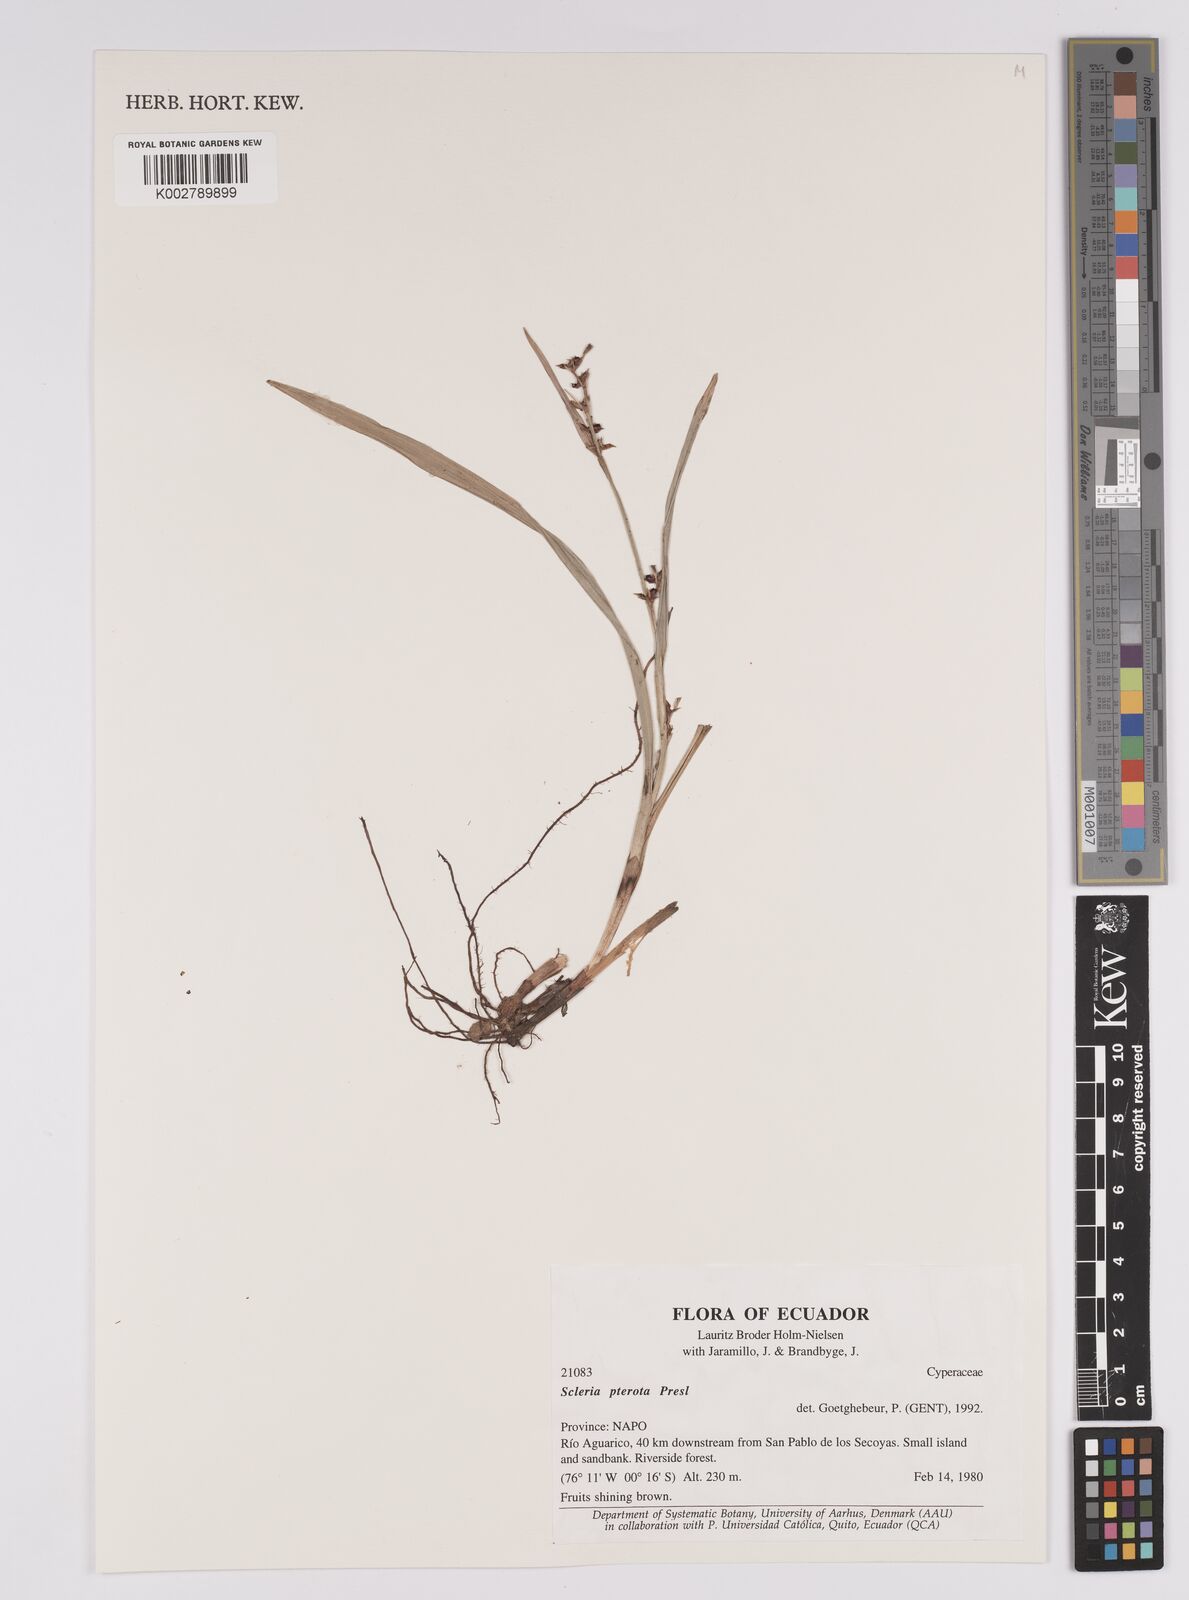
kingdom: Plantae
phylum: Tracheophyta
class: Liliopsida
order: Poales
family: Cyperaceae
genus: Scleria
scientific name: Scleria gaertneri
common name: Cortadera blanca
